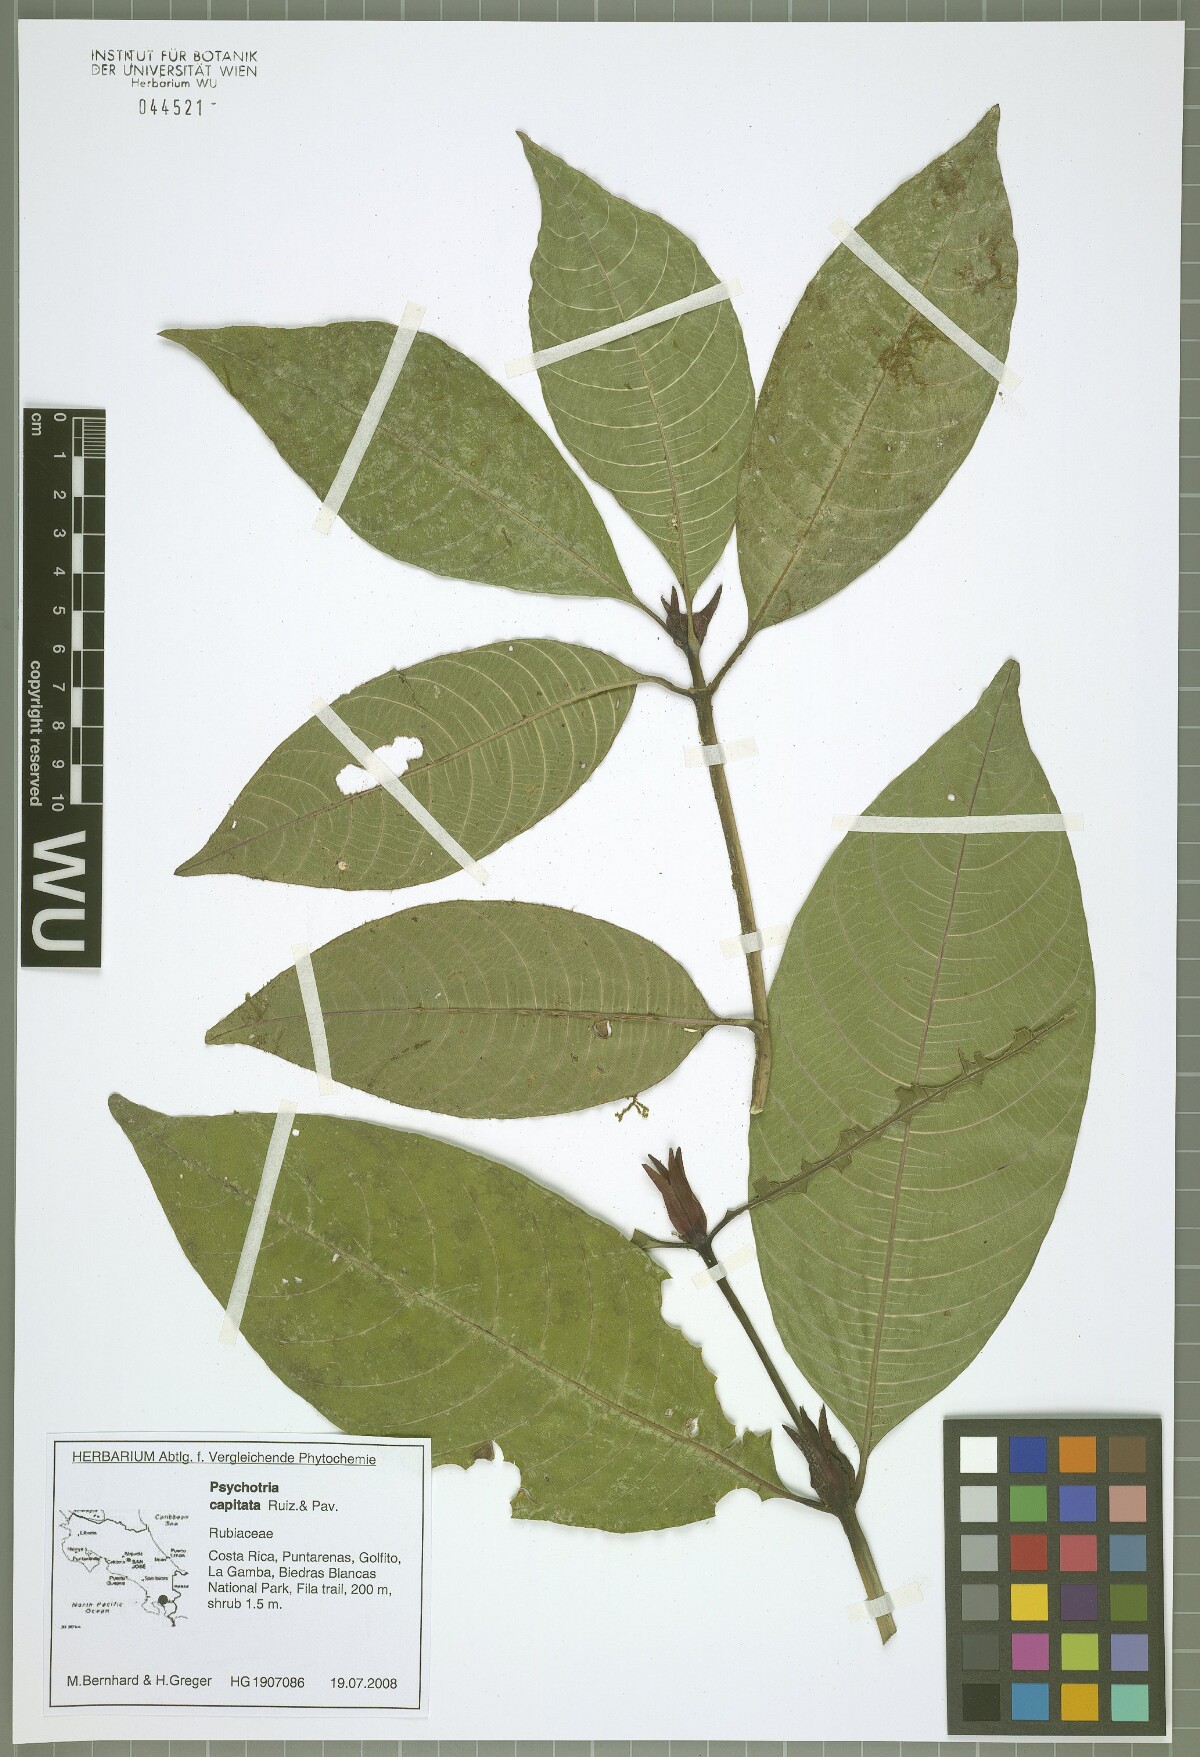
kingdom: Plantae
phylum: Tracheophyta
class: Magnoliopsida
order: Gentianales
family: Rubiaceae
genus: Palicourea
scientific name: Palicourea violacea
